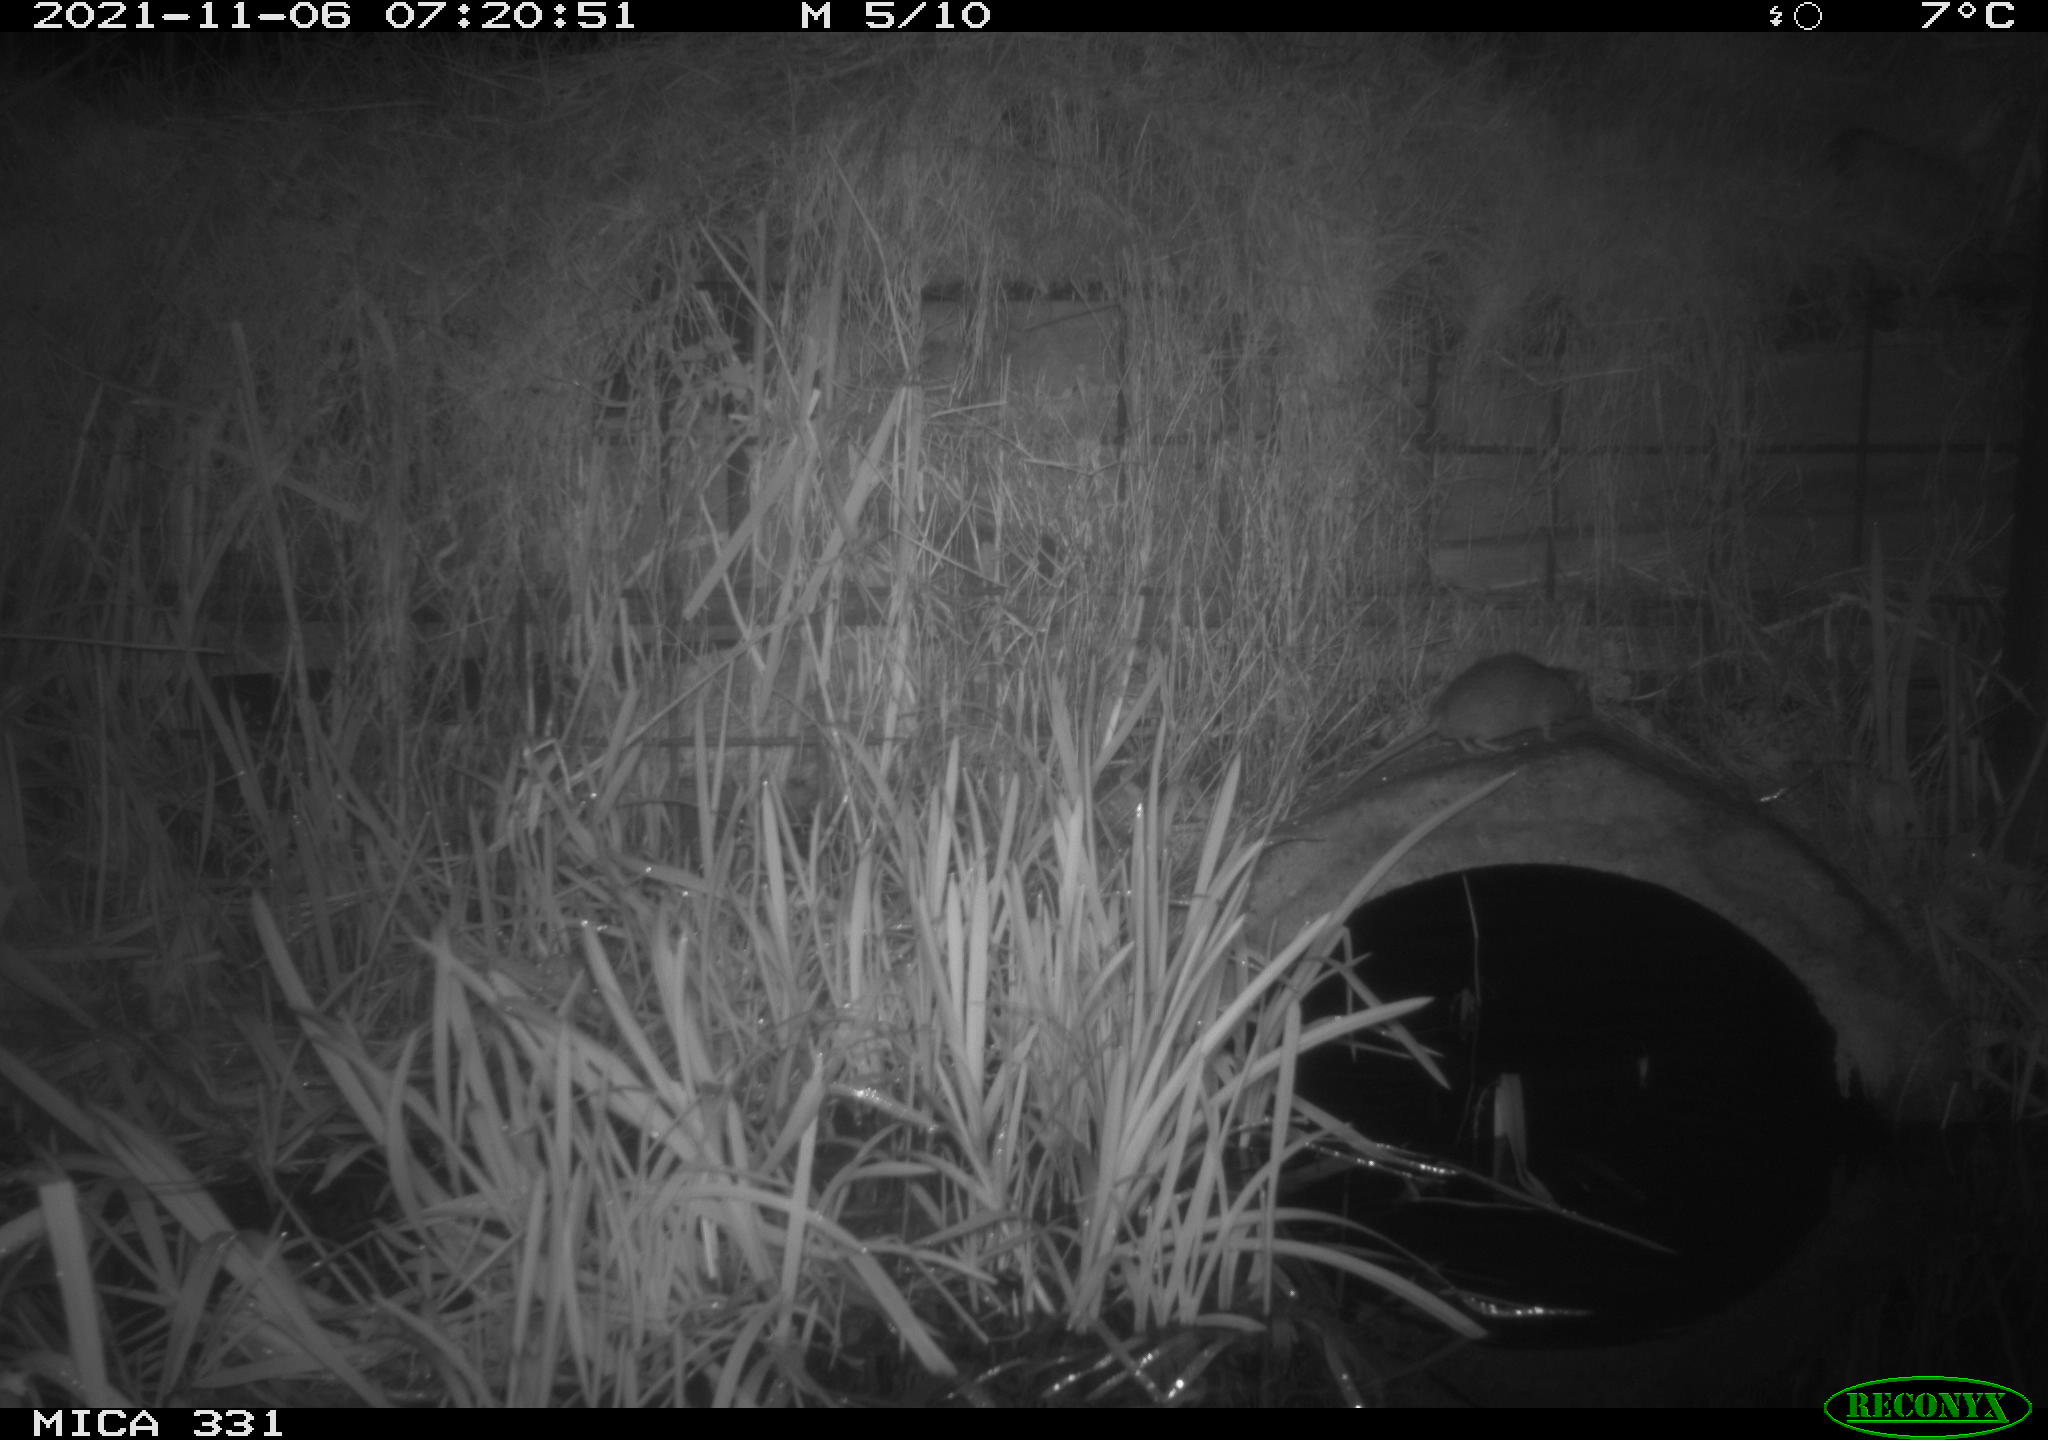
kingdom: Animalia
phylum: Chordata
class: Mammalia
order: Rodentia
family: Muridae
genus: Rattus
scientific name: Rattus norvegicus
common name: Brown rat
